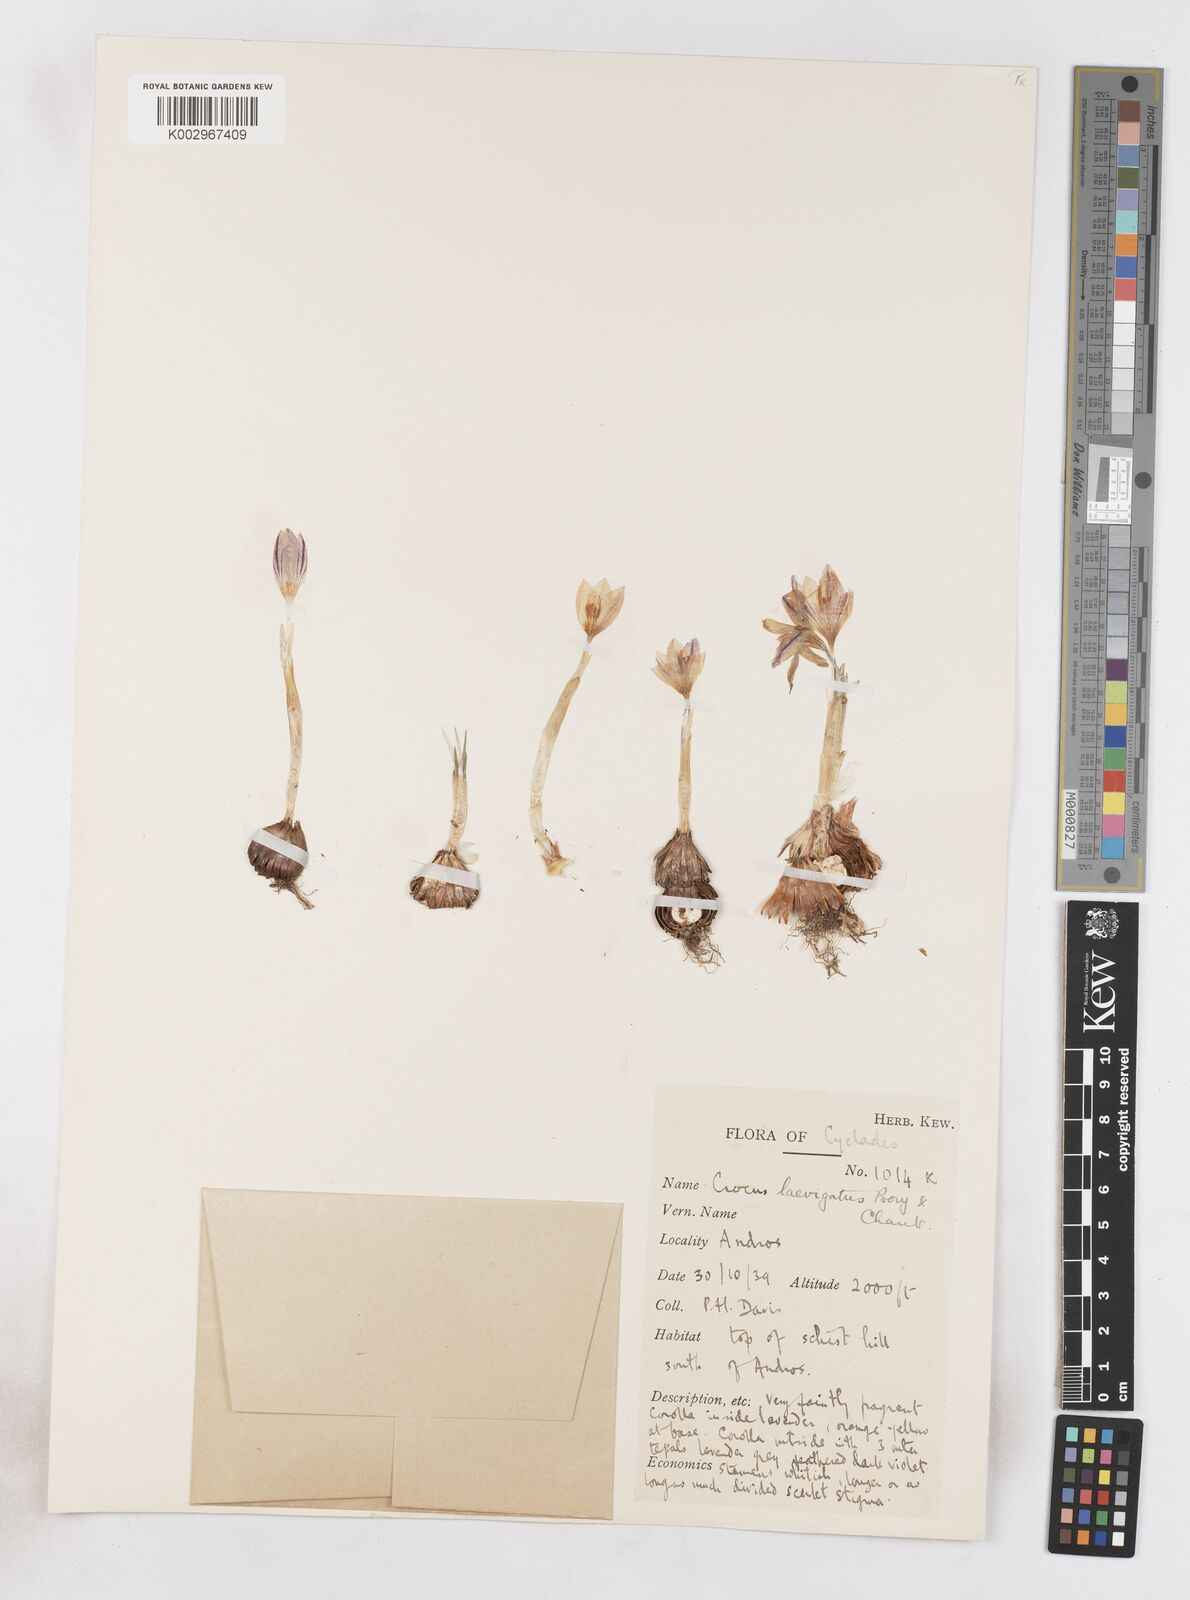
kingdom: Plantae
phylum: Tracheophyta
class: Liliopsida
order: Asparagales
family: Iridaceae
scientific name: Iridaceae
